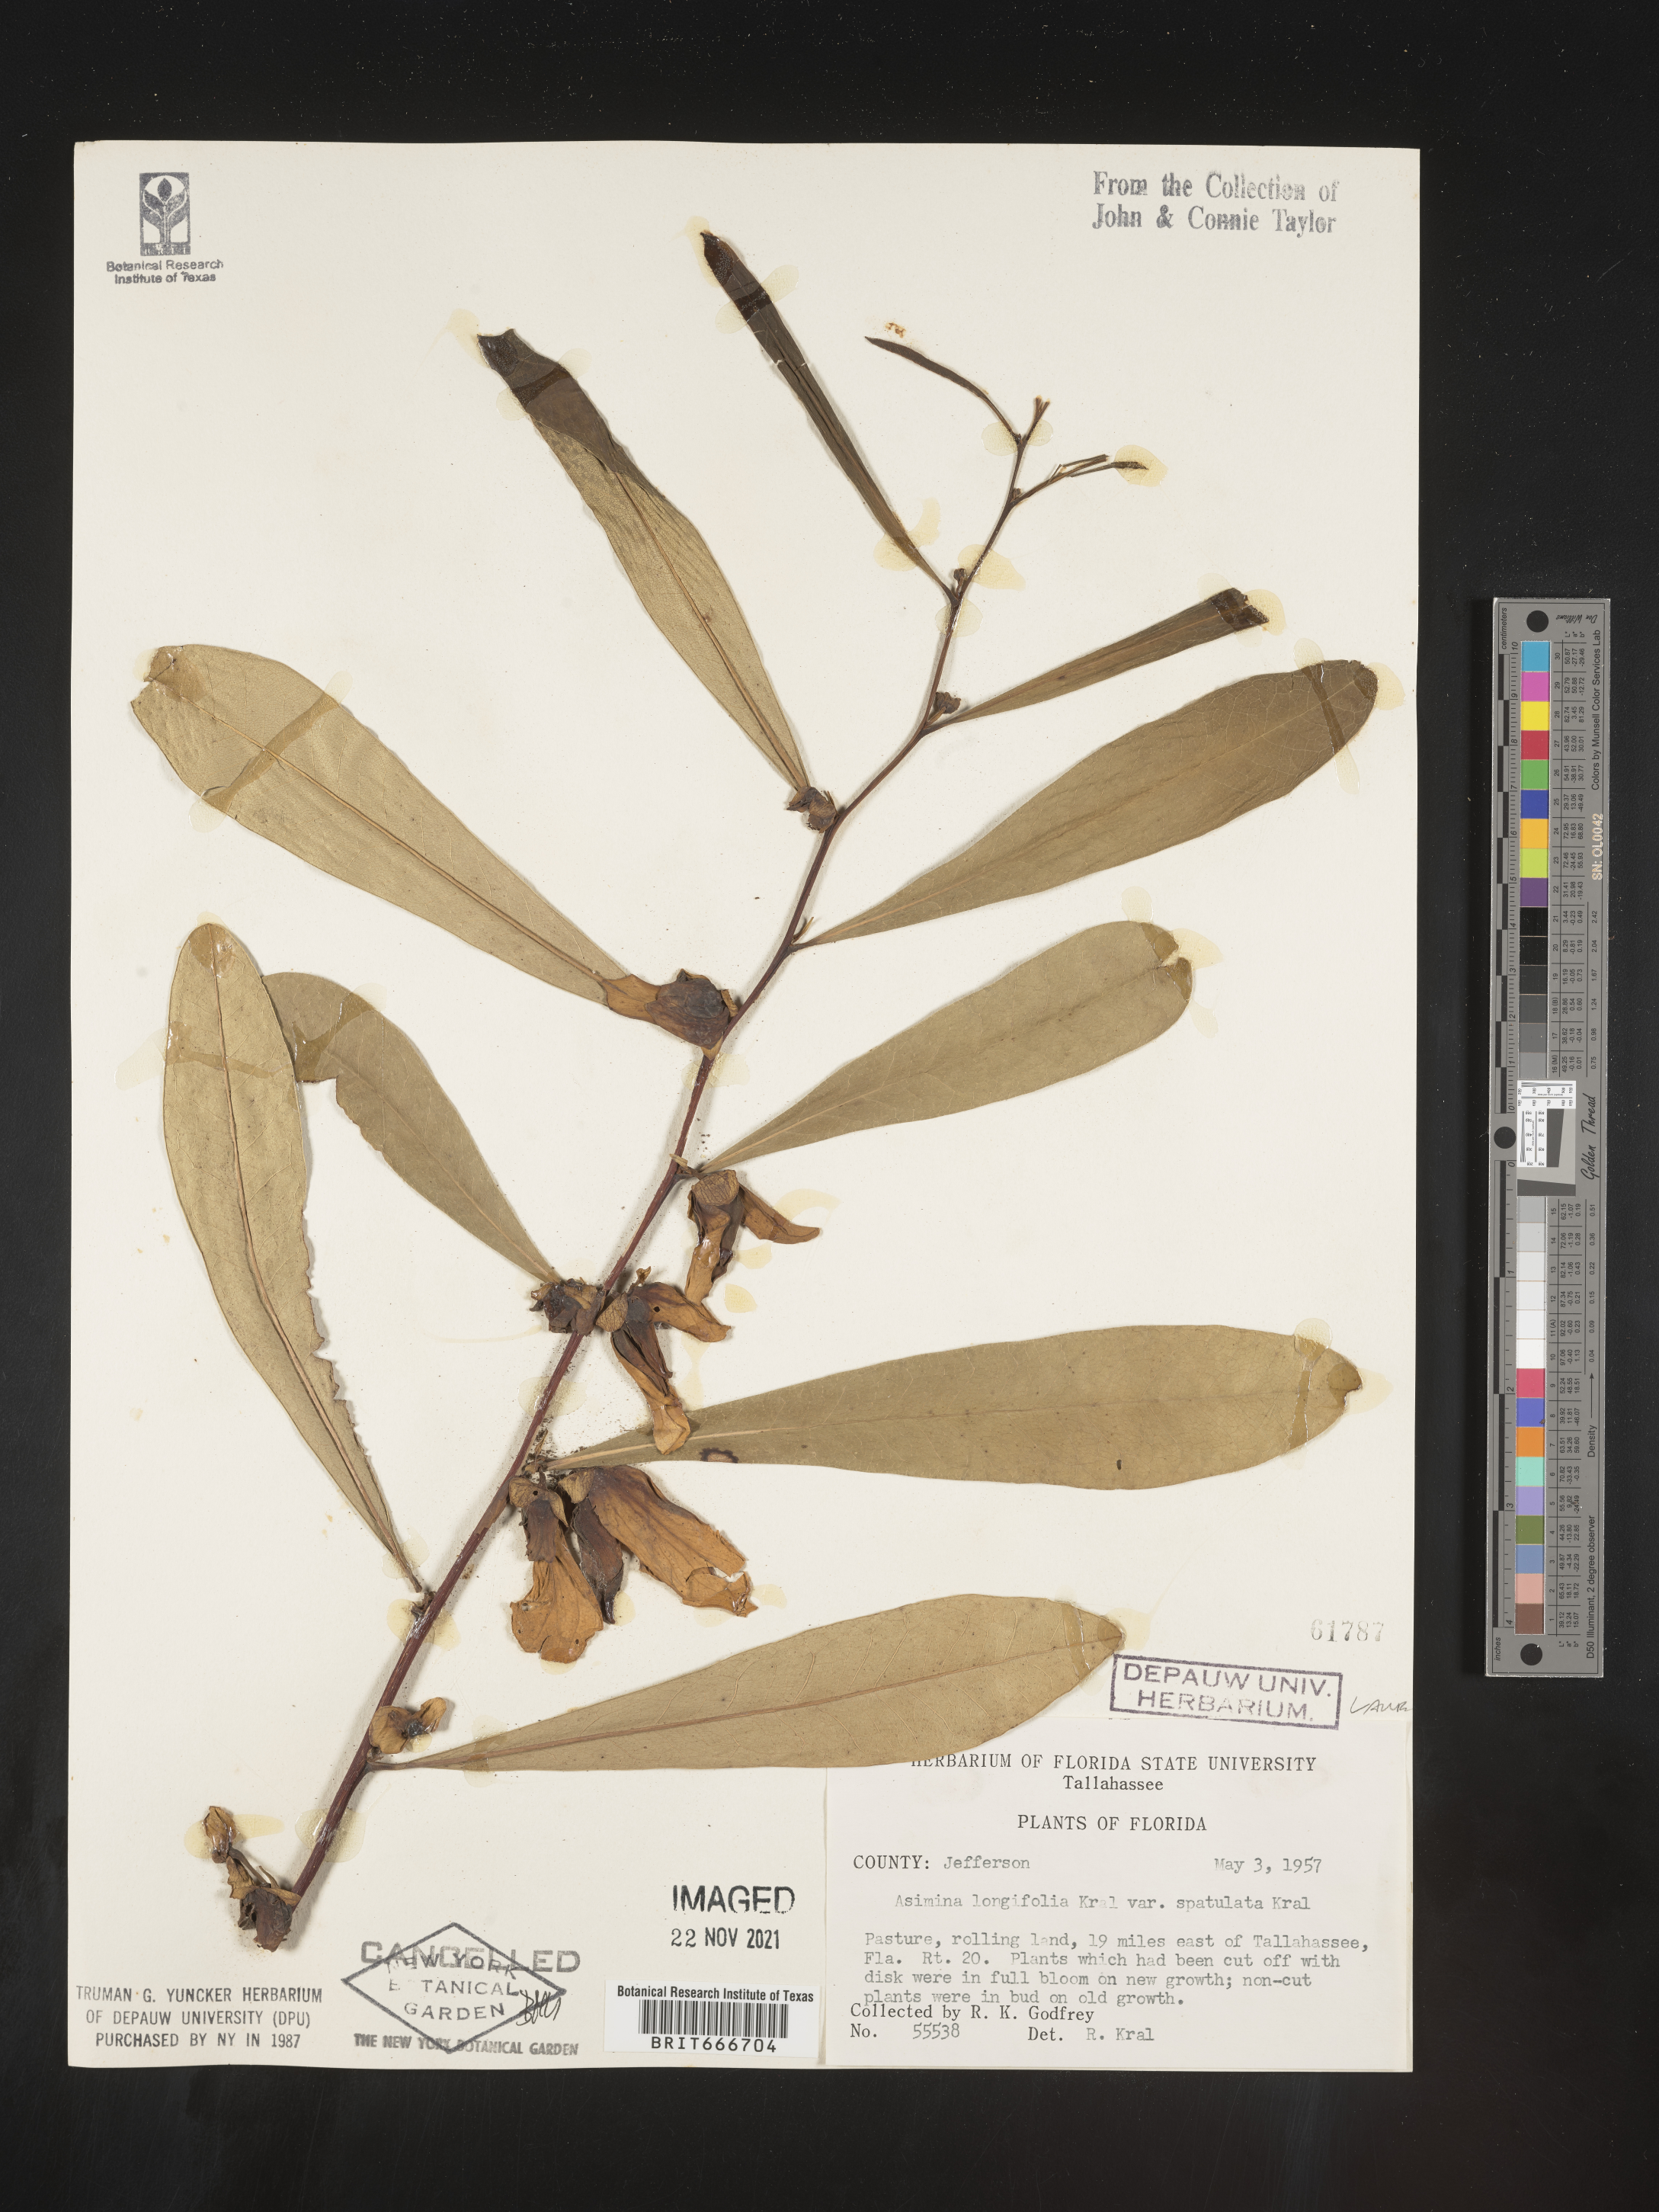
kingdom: Plantae
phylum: Tracheophyta
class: Magnoliopsida
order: Magnoliales
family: Annonaceae
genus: Asimina
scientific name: Asimina
